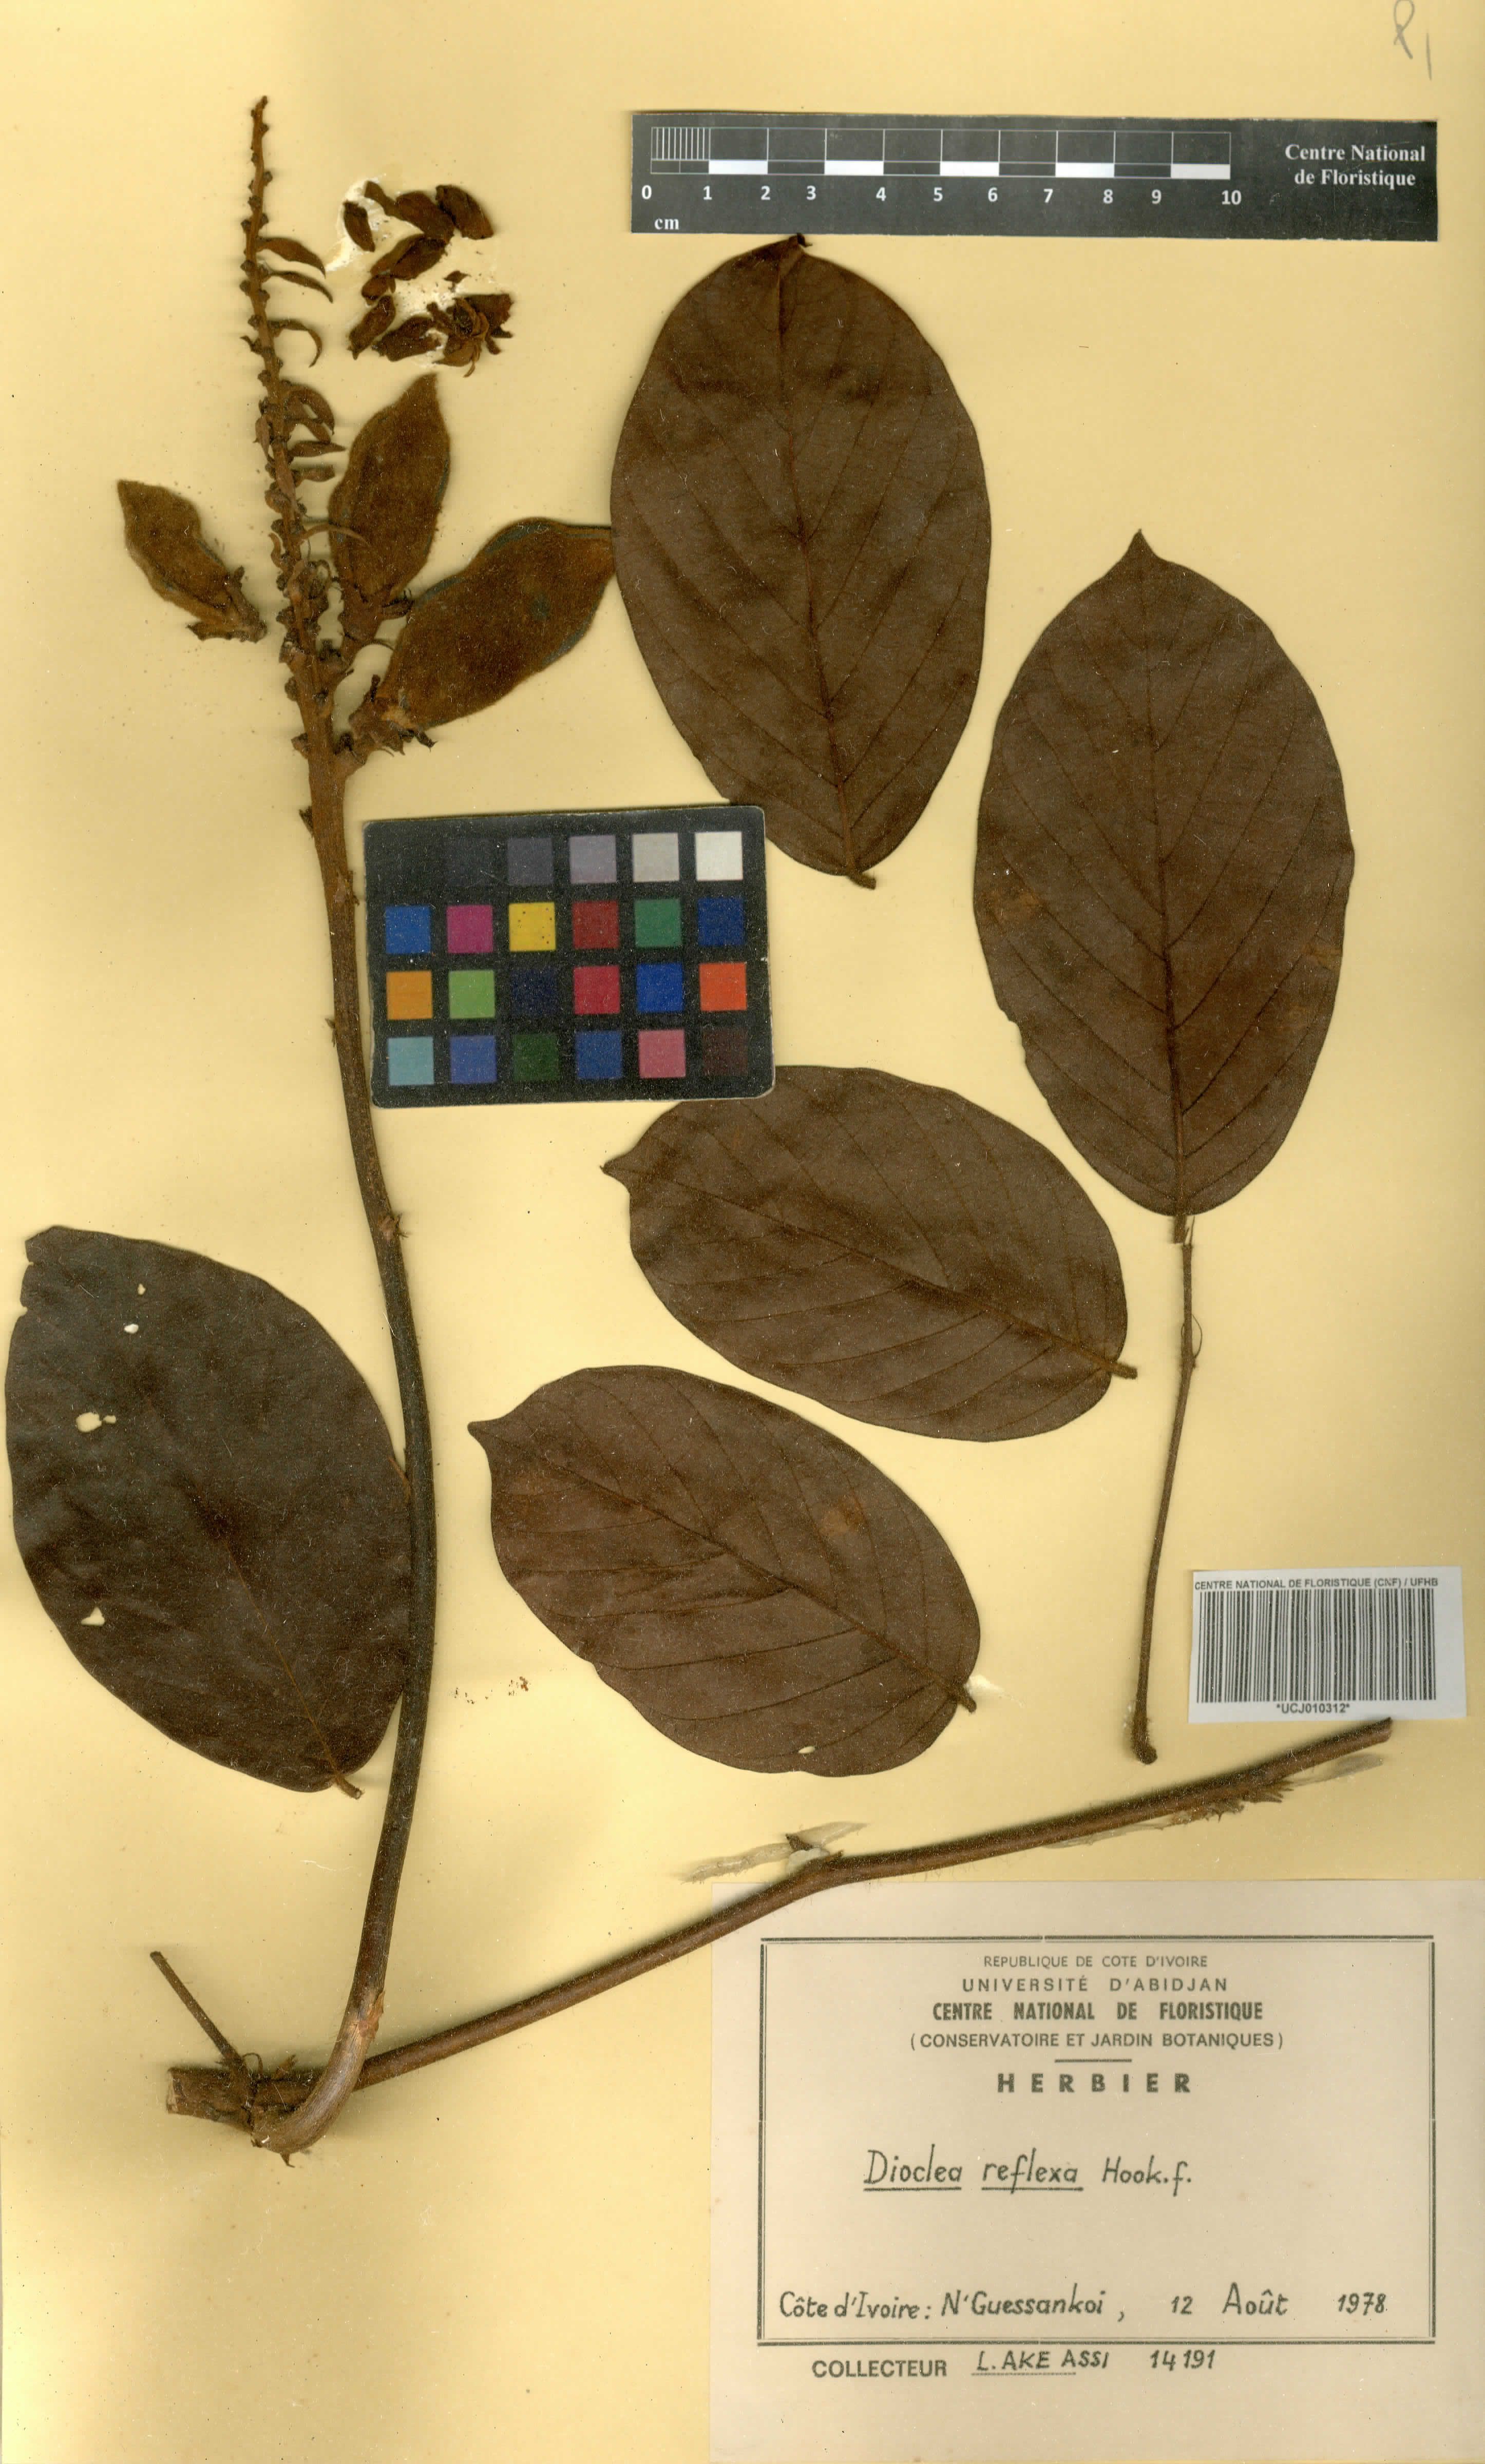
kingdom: Plantae
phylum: Tracheophyta
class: Magnoliopsida
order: Fabales
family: Fabaceae
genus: Macropsychanthus
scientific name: Macropsychanthus comosus
